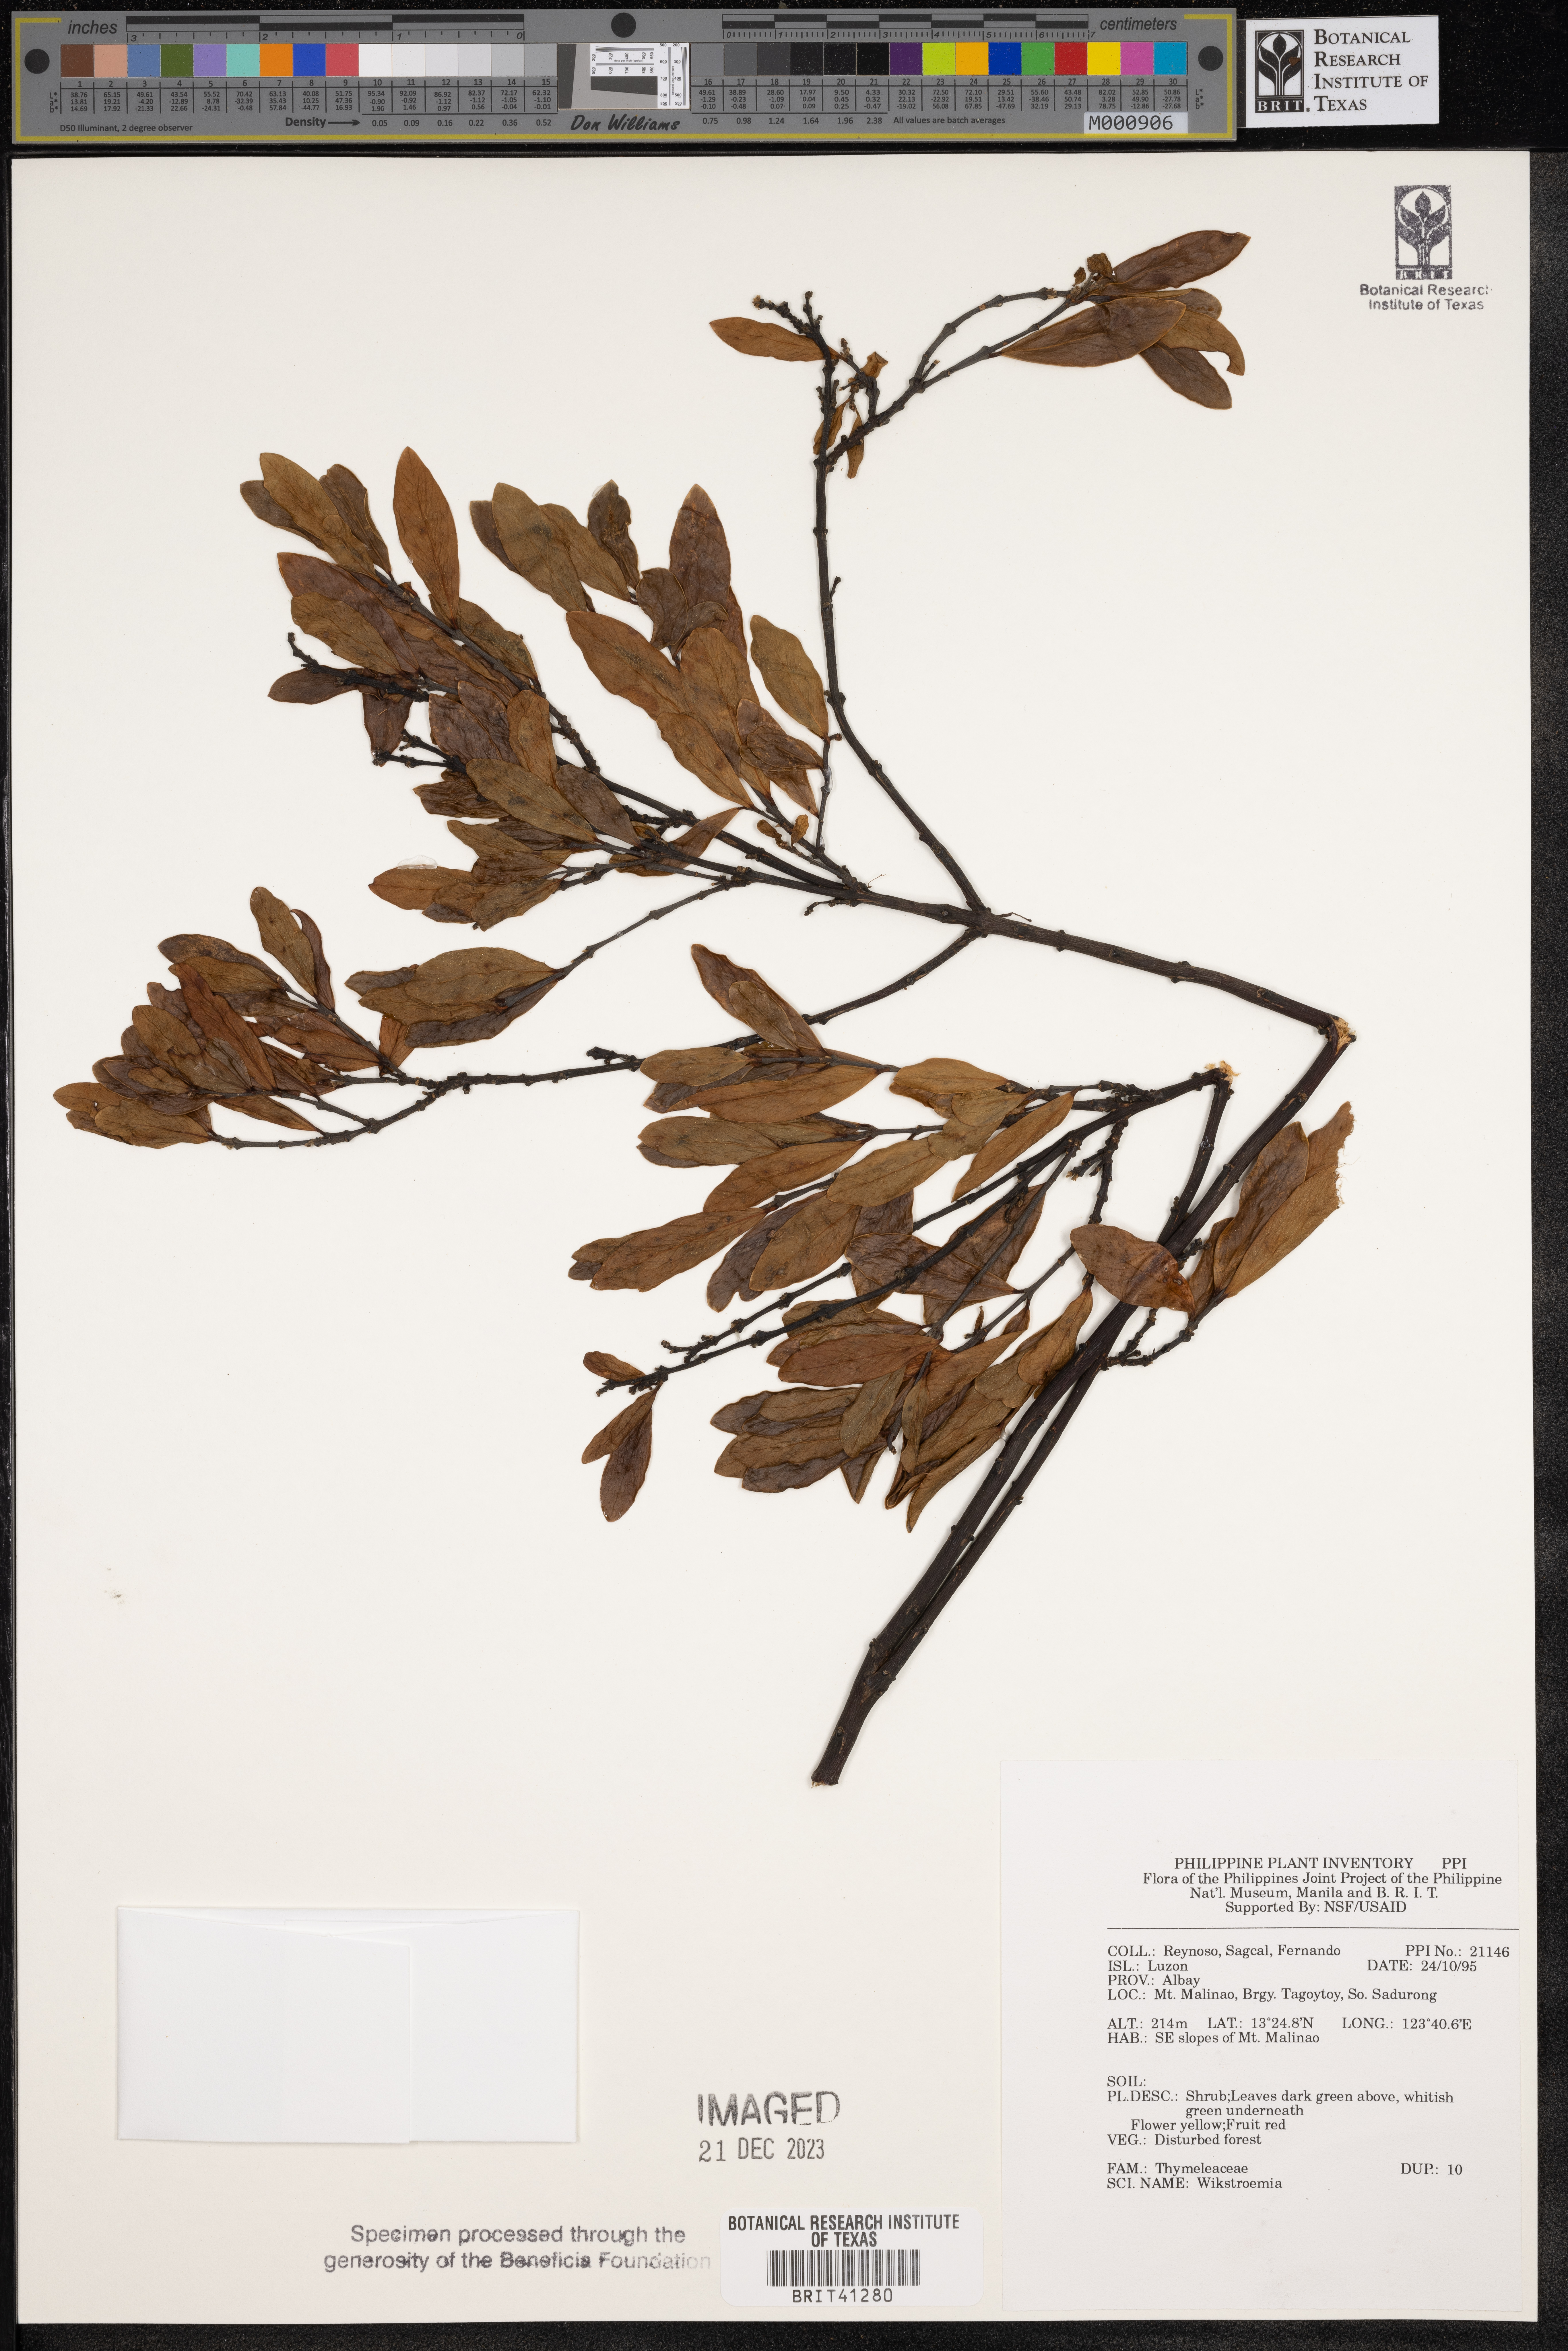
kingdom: Plantae
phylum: Tracheophyta
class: Magnoliopsida
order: Malvales
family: Thymelaeaceae
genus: Wikstroemia
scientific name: Wikstroemia
